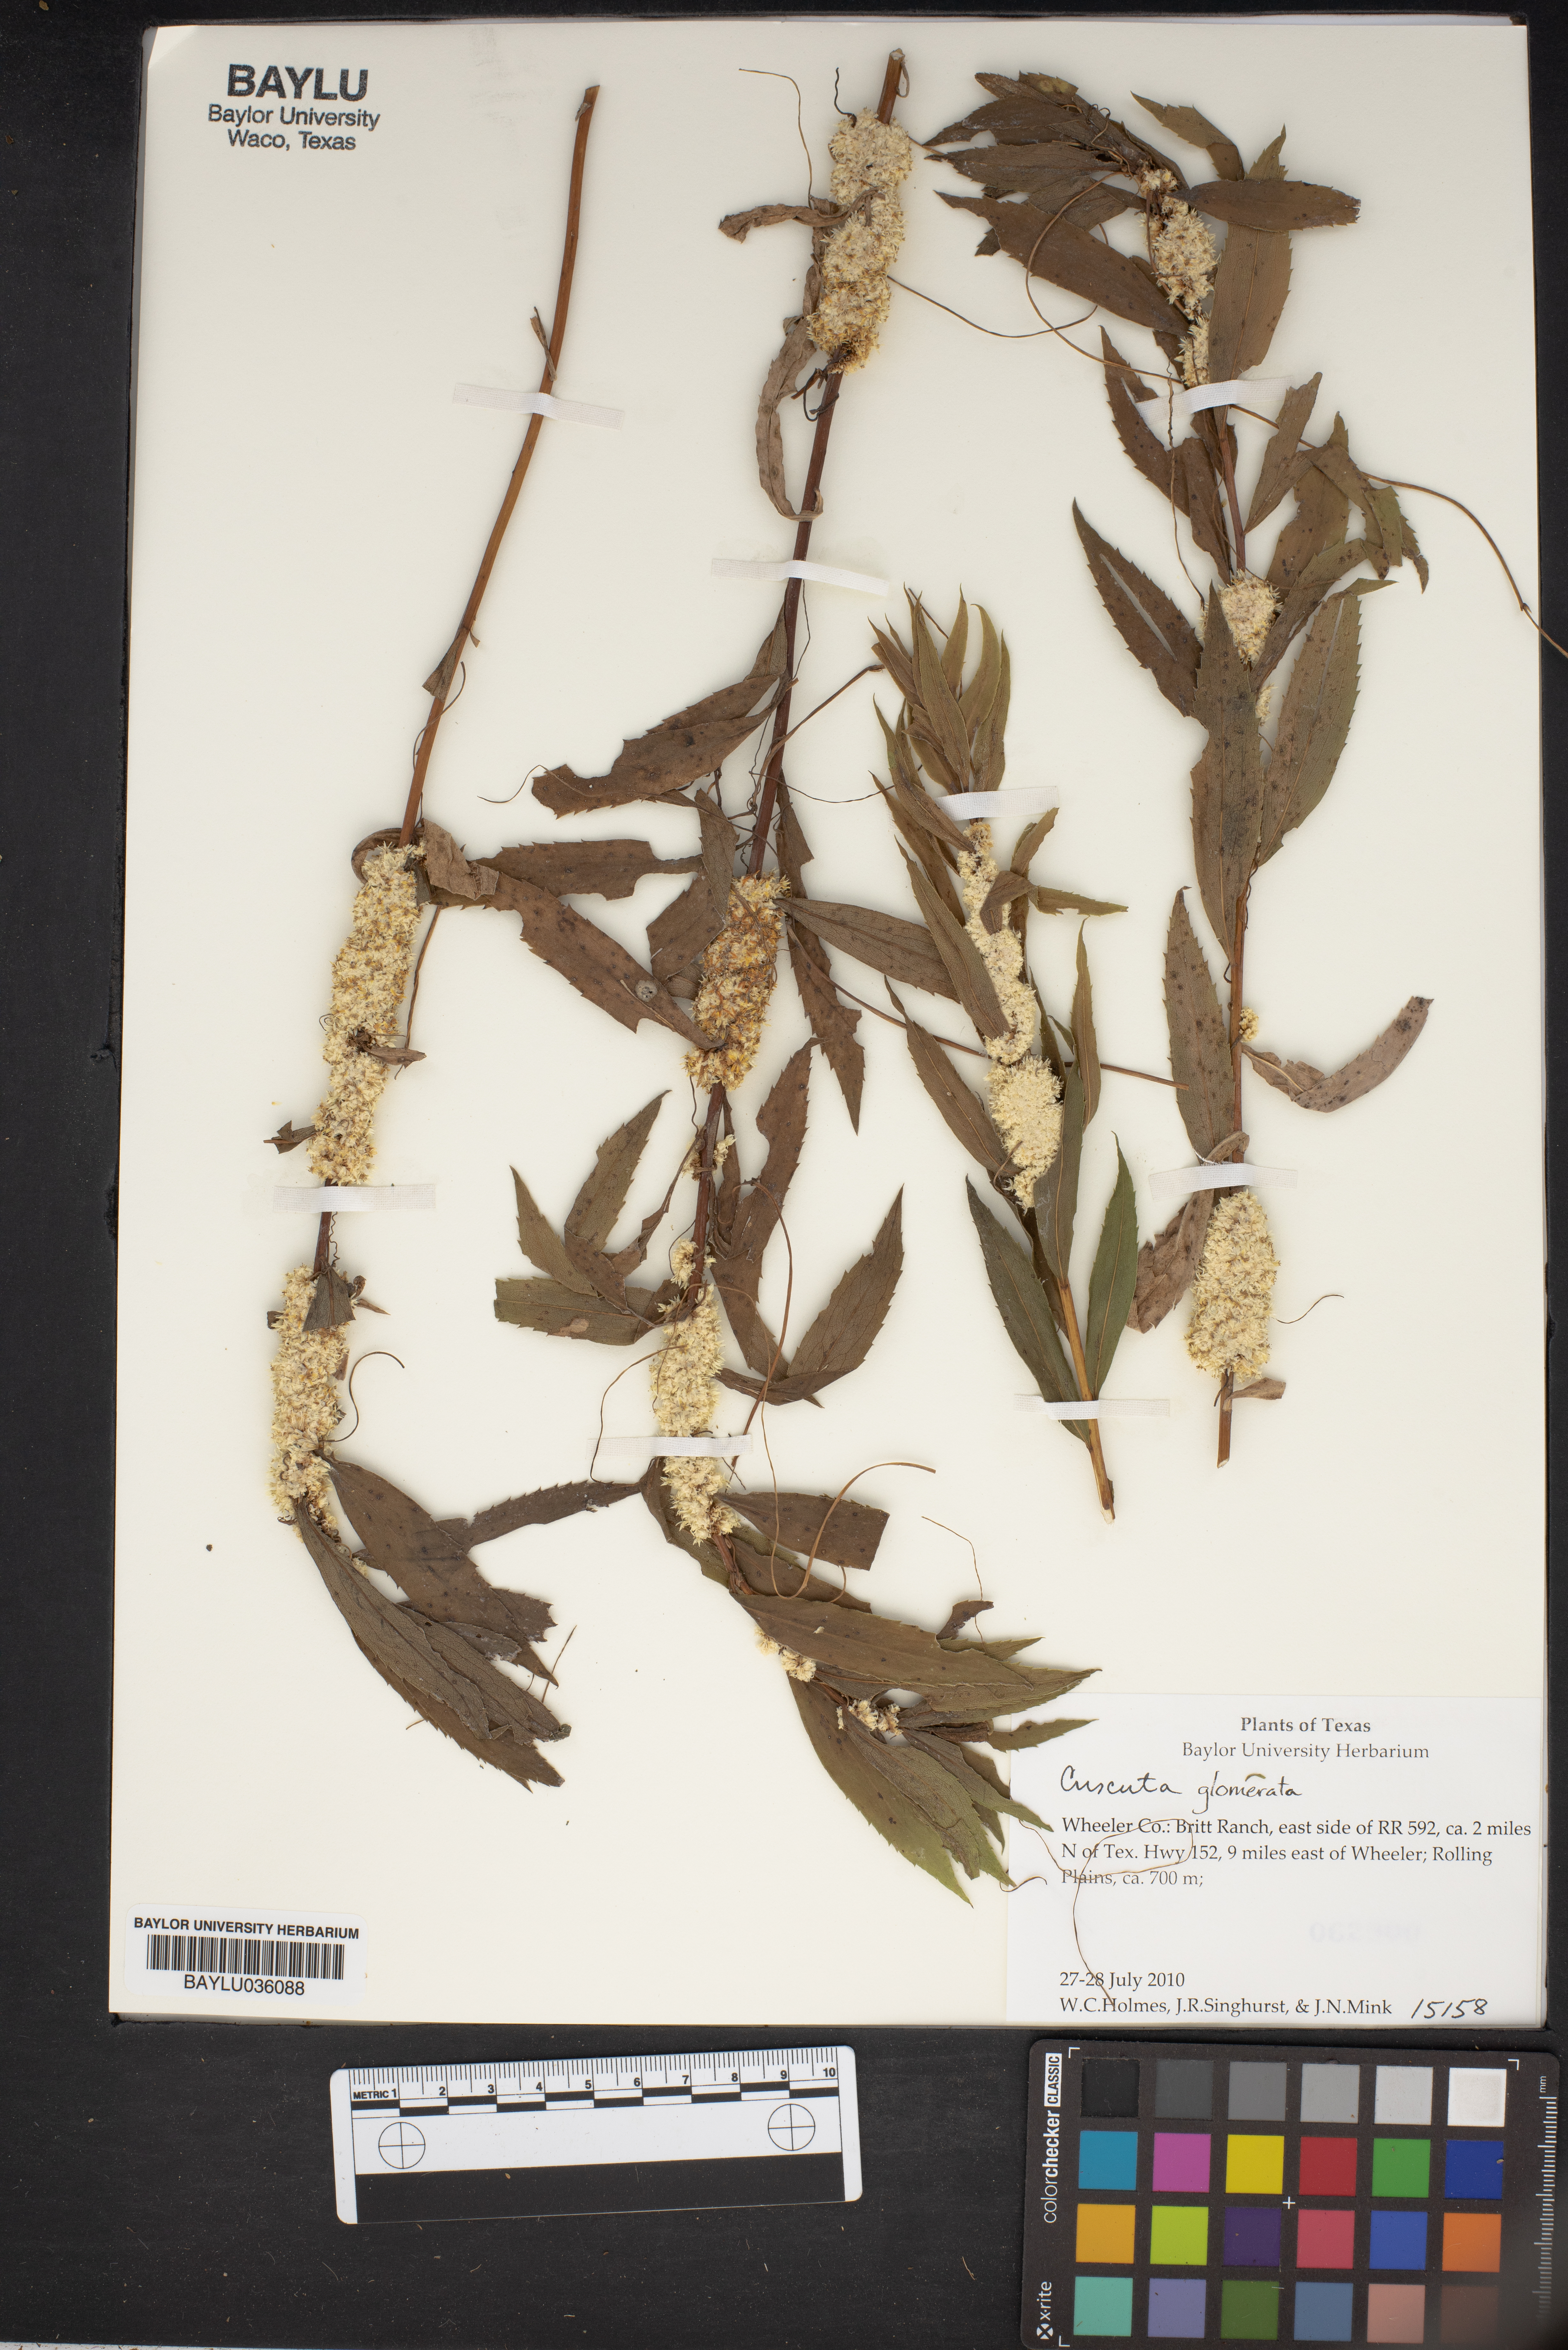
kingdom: Plantae
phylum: Tracheophyta
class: Magnoliopsida
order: Solanales
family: Convolvulaceae
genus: Cuscuta
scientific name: Cuscuta glomerata
